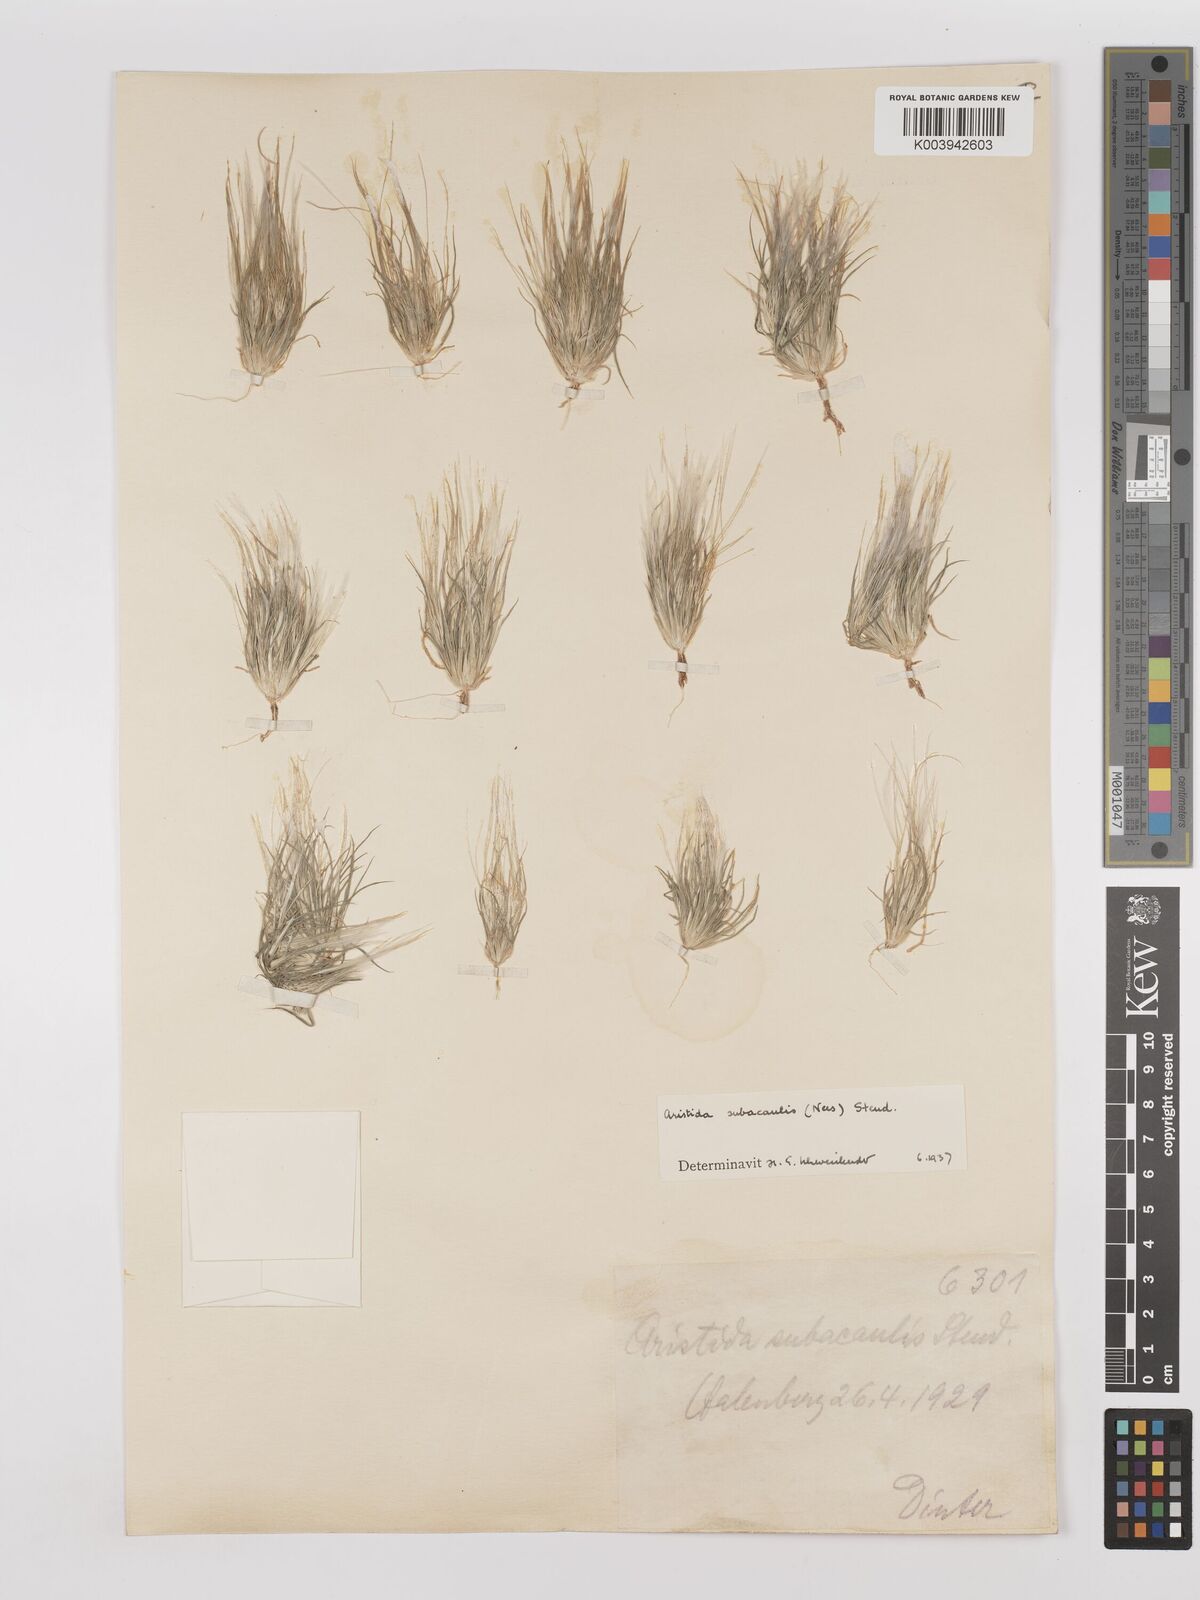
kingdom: Plantae
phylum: Tracheophyta
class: Liliopsida
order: Poales
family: Poaceae
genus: Stipagrostis
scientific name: Stipagrostis subacaulis
